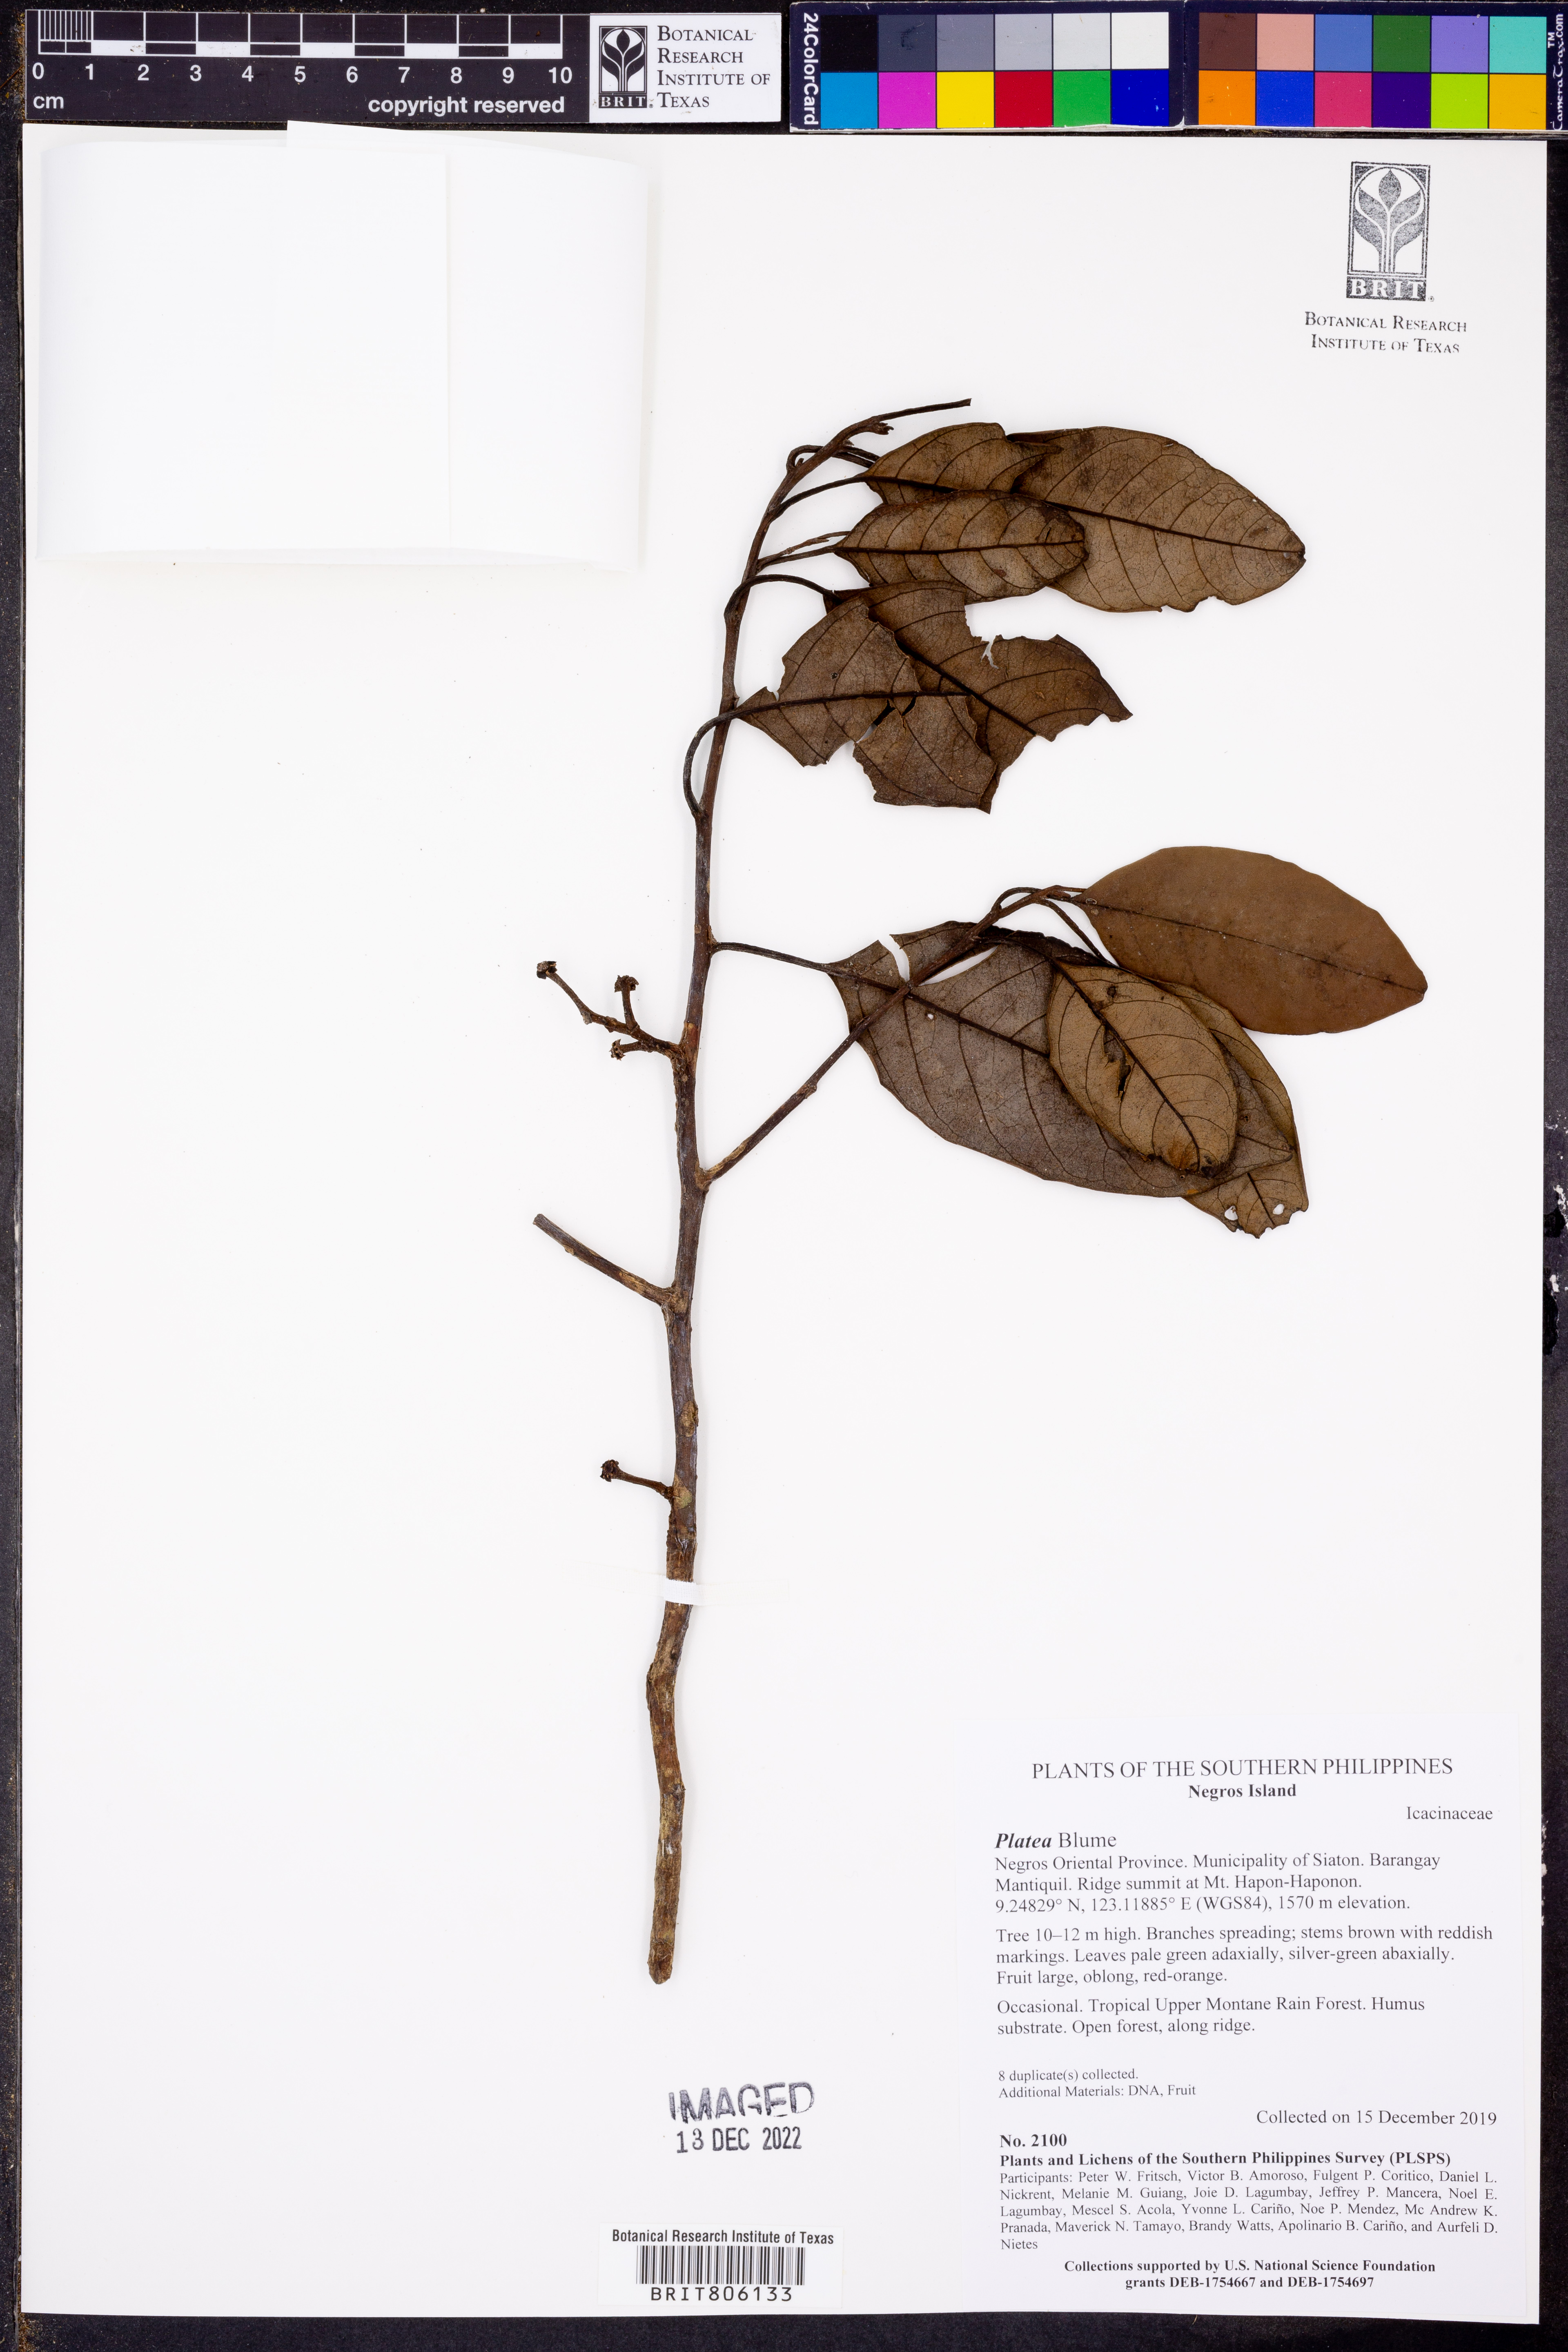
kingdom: Plantae
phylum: Tracheophyta
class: Magnoliopsida
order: Cardiopteridales
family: Stemonuraceae
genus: Platea
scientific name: Platea
